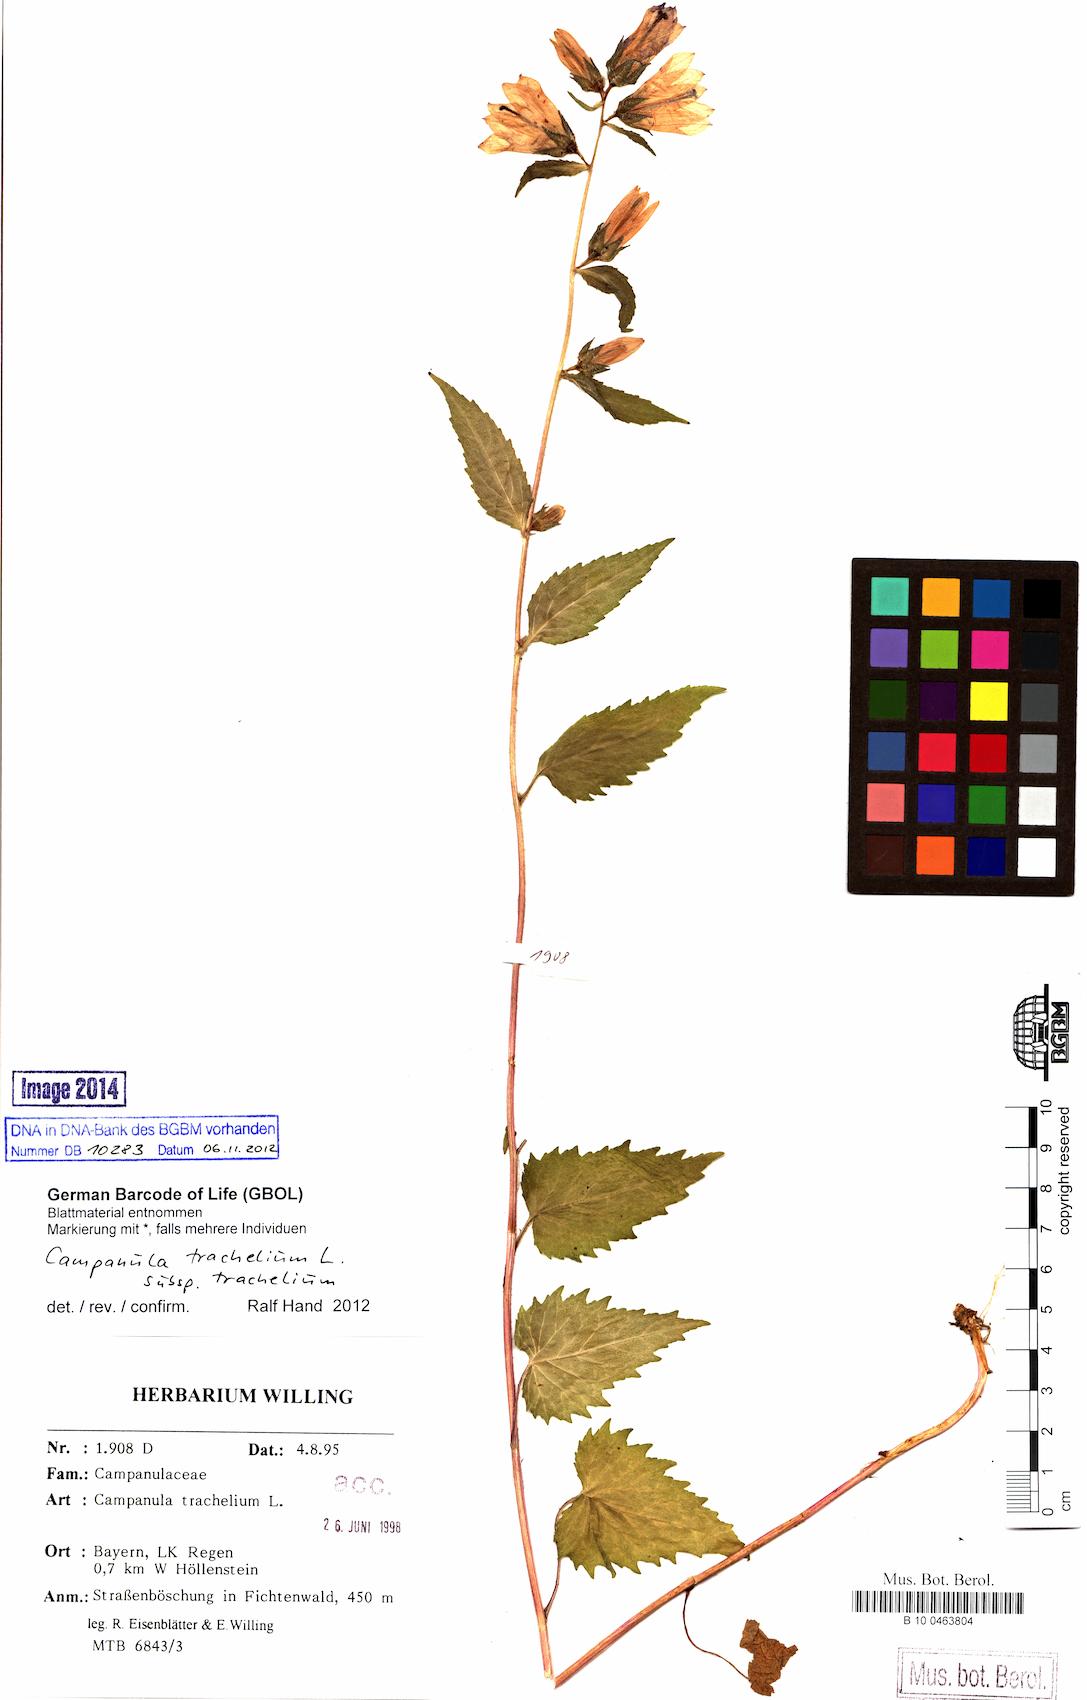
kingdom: Plantae
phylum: Tracheophyta
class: Magnoliopsida
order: Asterales
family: Campanulaceae
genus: Campanula
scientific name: Campanula trachelium
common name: Nettle-leaved bellflower
